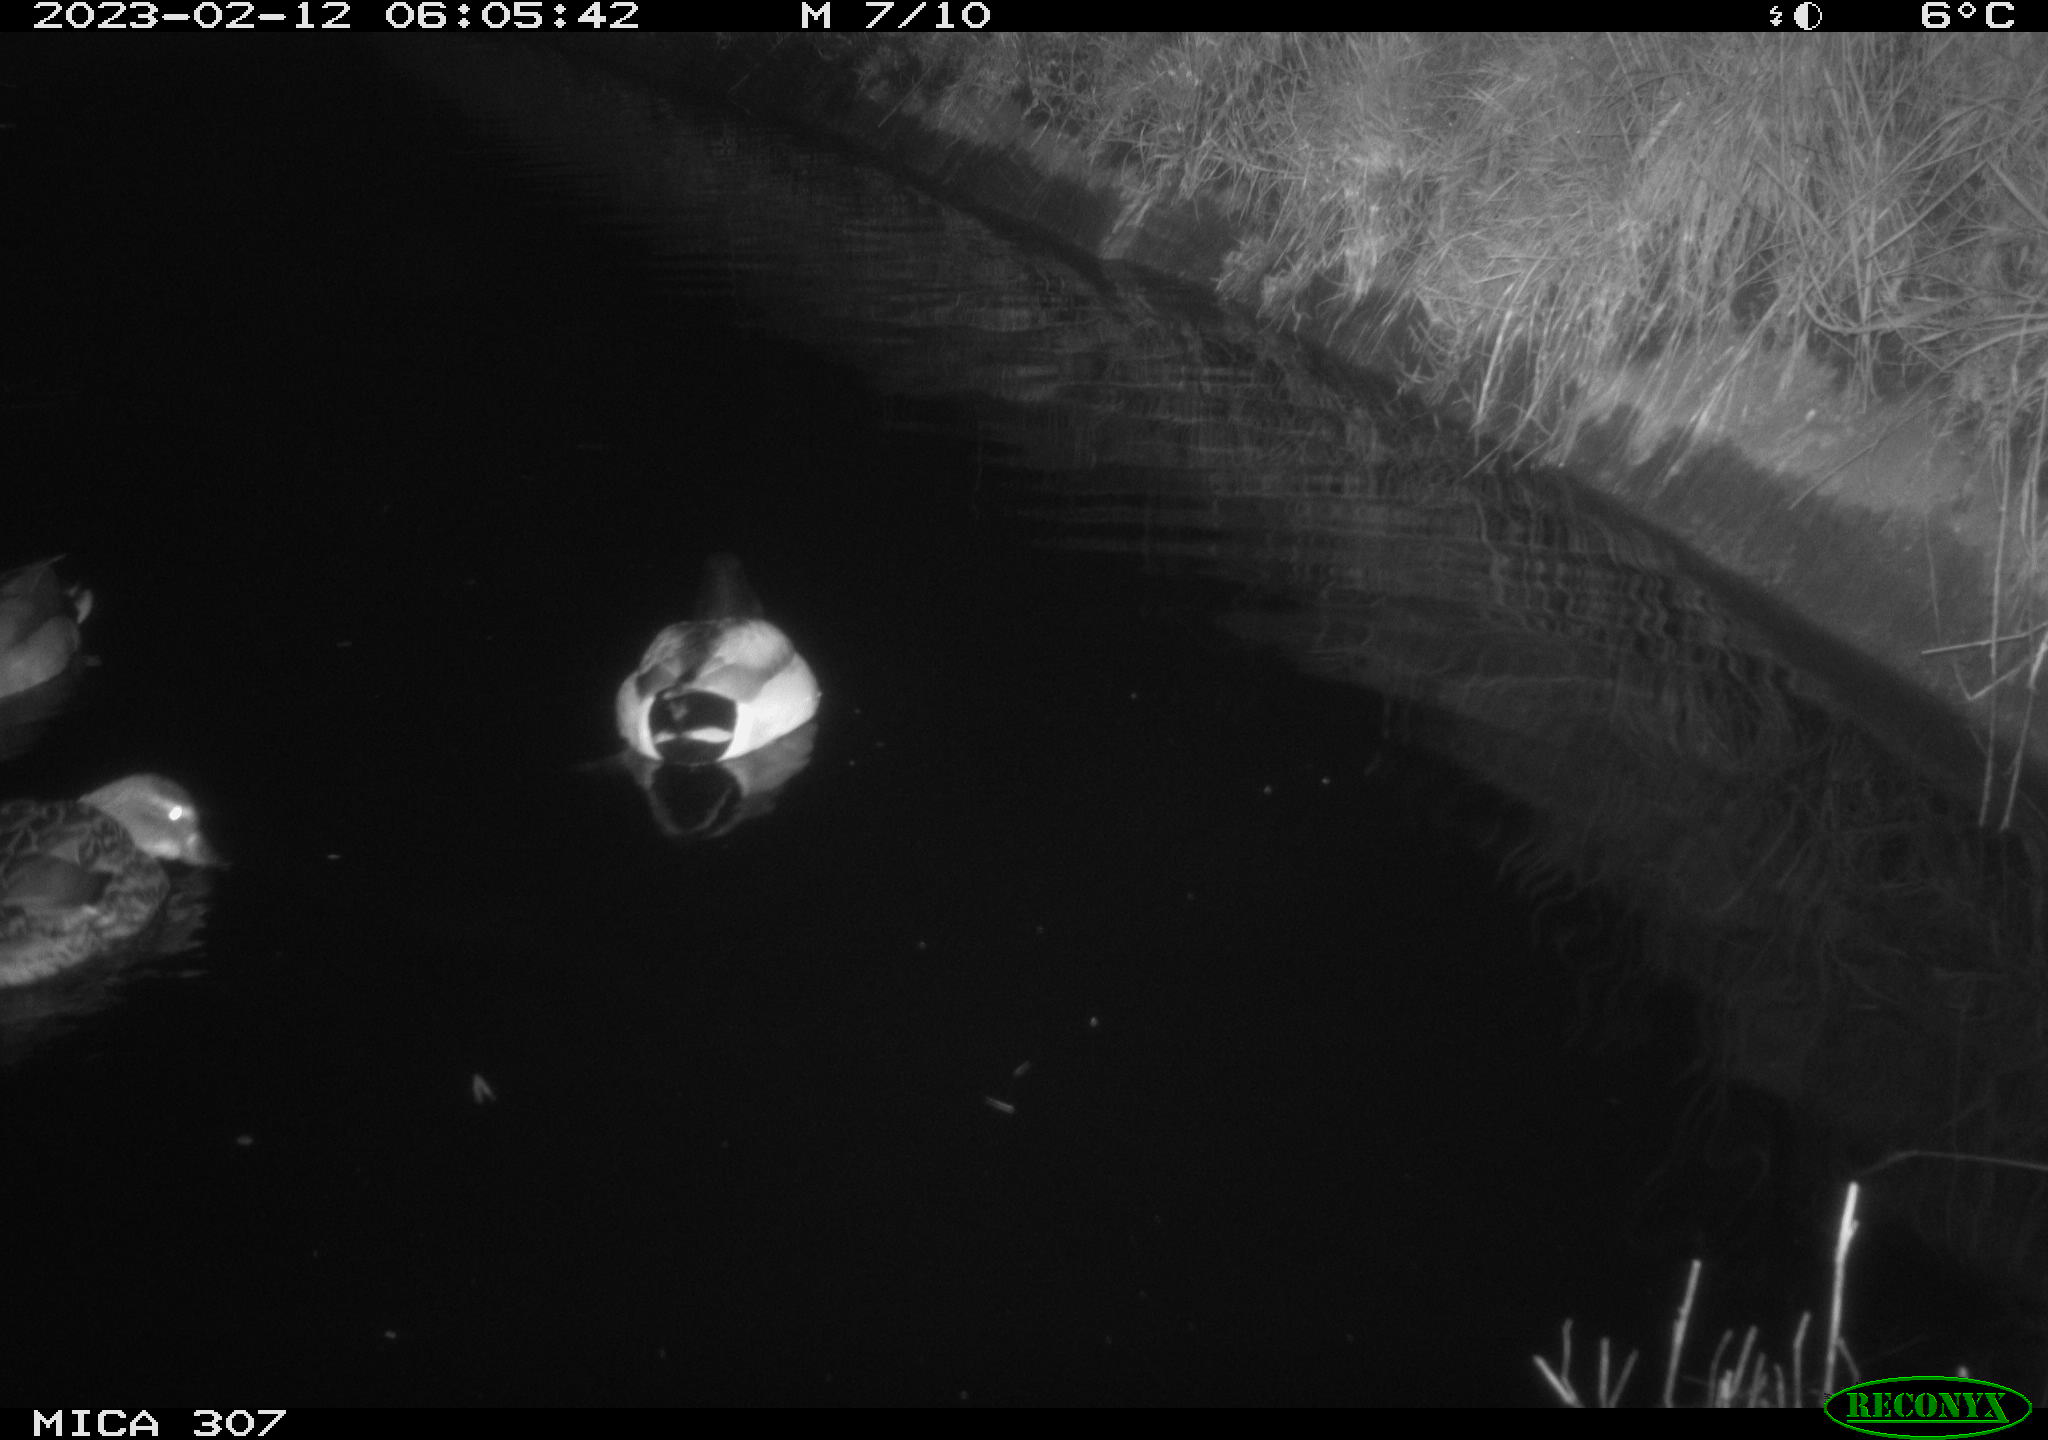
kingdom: Animalia
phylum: Chordata
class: Aves
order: Anseriformes
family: Anatidae
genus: Anas
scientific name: Anas
